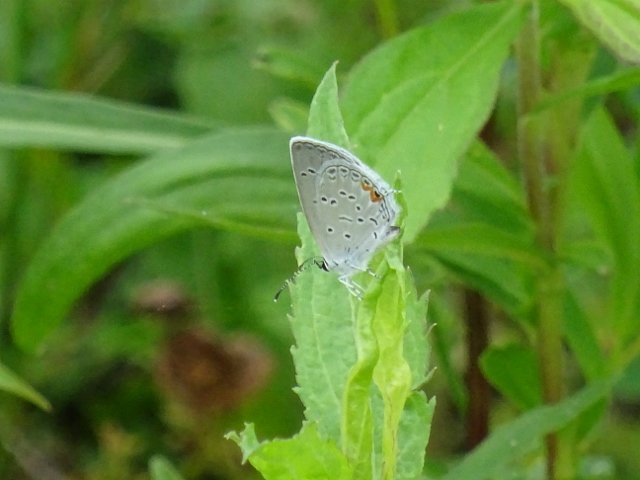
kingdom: Animalia
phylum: Arthropoda
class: Insecta
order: Lepidoptera
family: Lycaenidae
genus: Elkalyce
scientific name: Elkalyce comyntas
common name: Eastern Tailed-Blue
